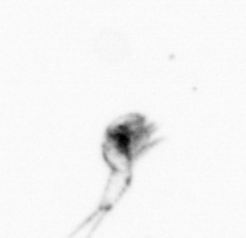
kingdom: Animalia
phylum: Arthropoda
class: Copepoda
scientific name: Copepoda
